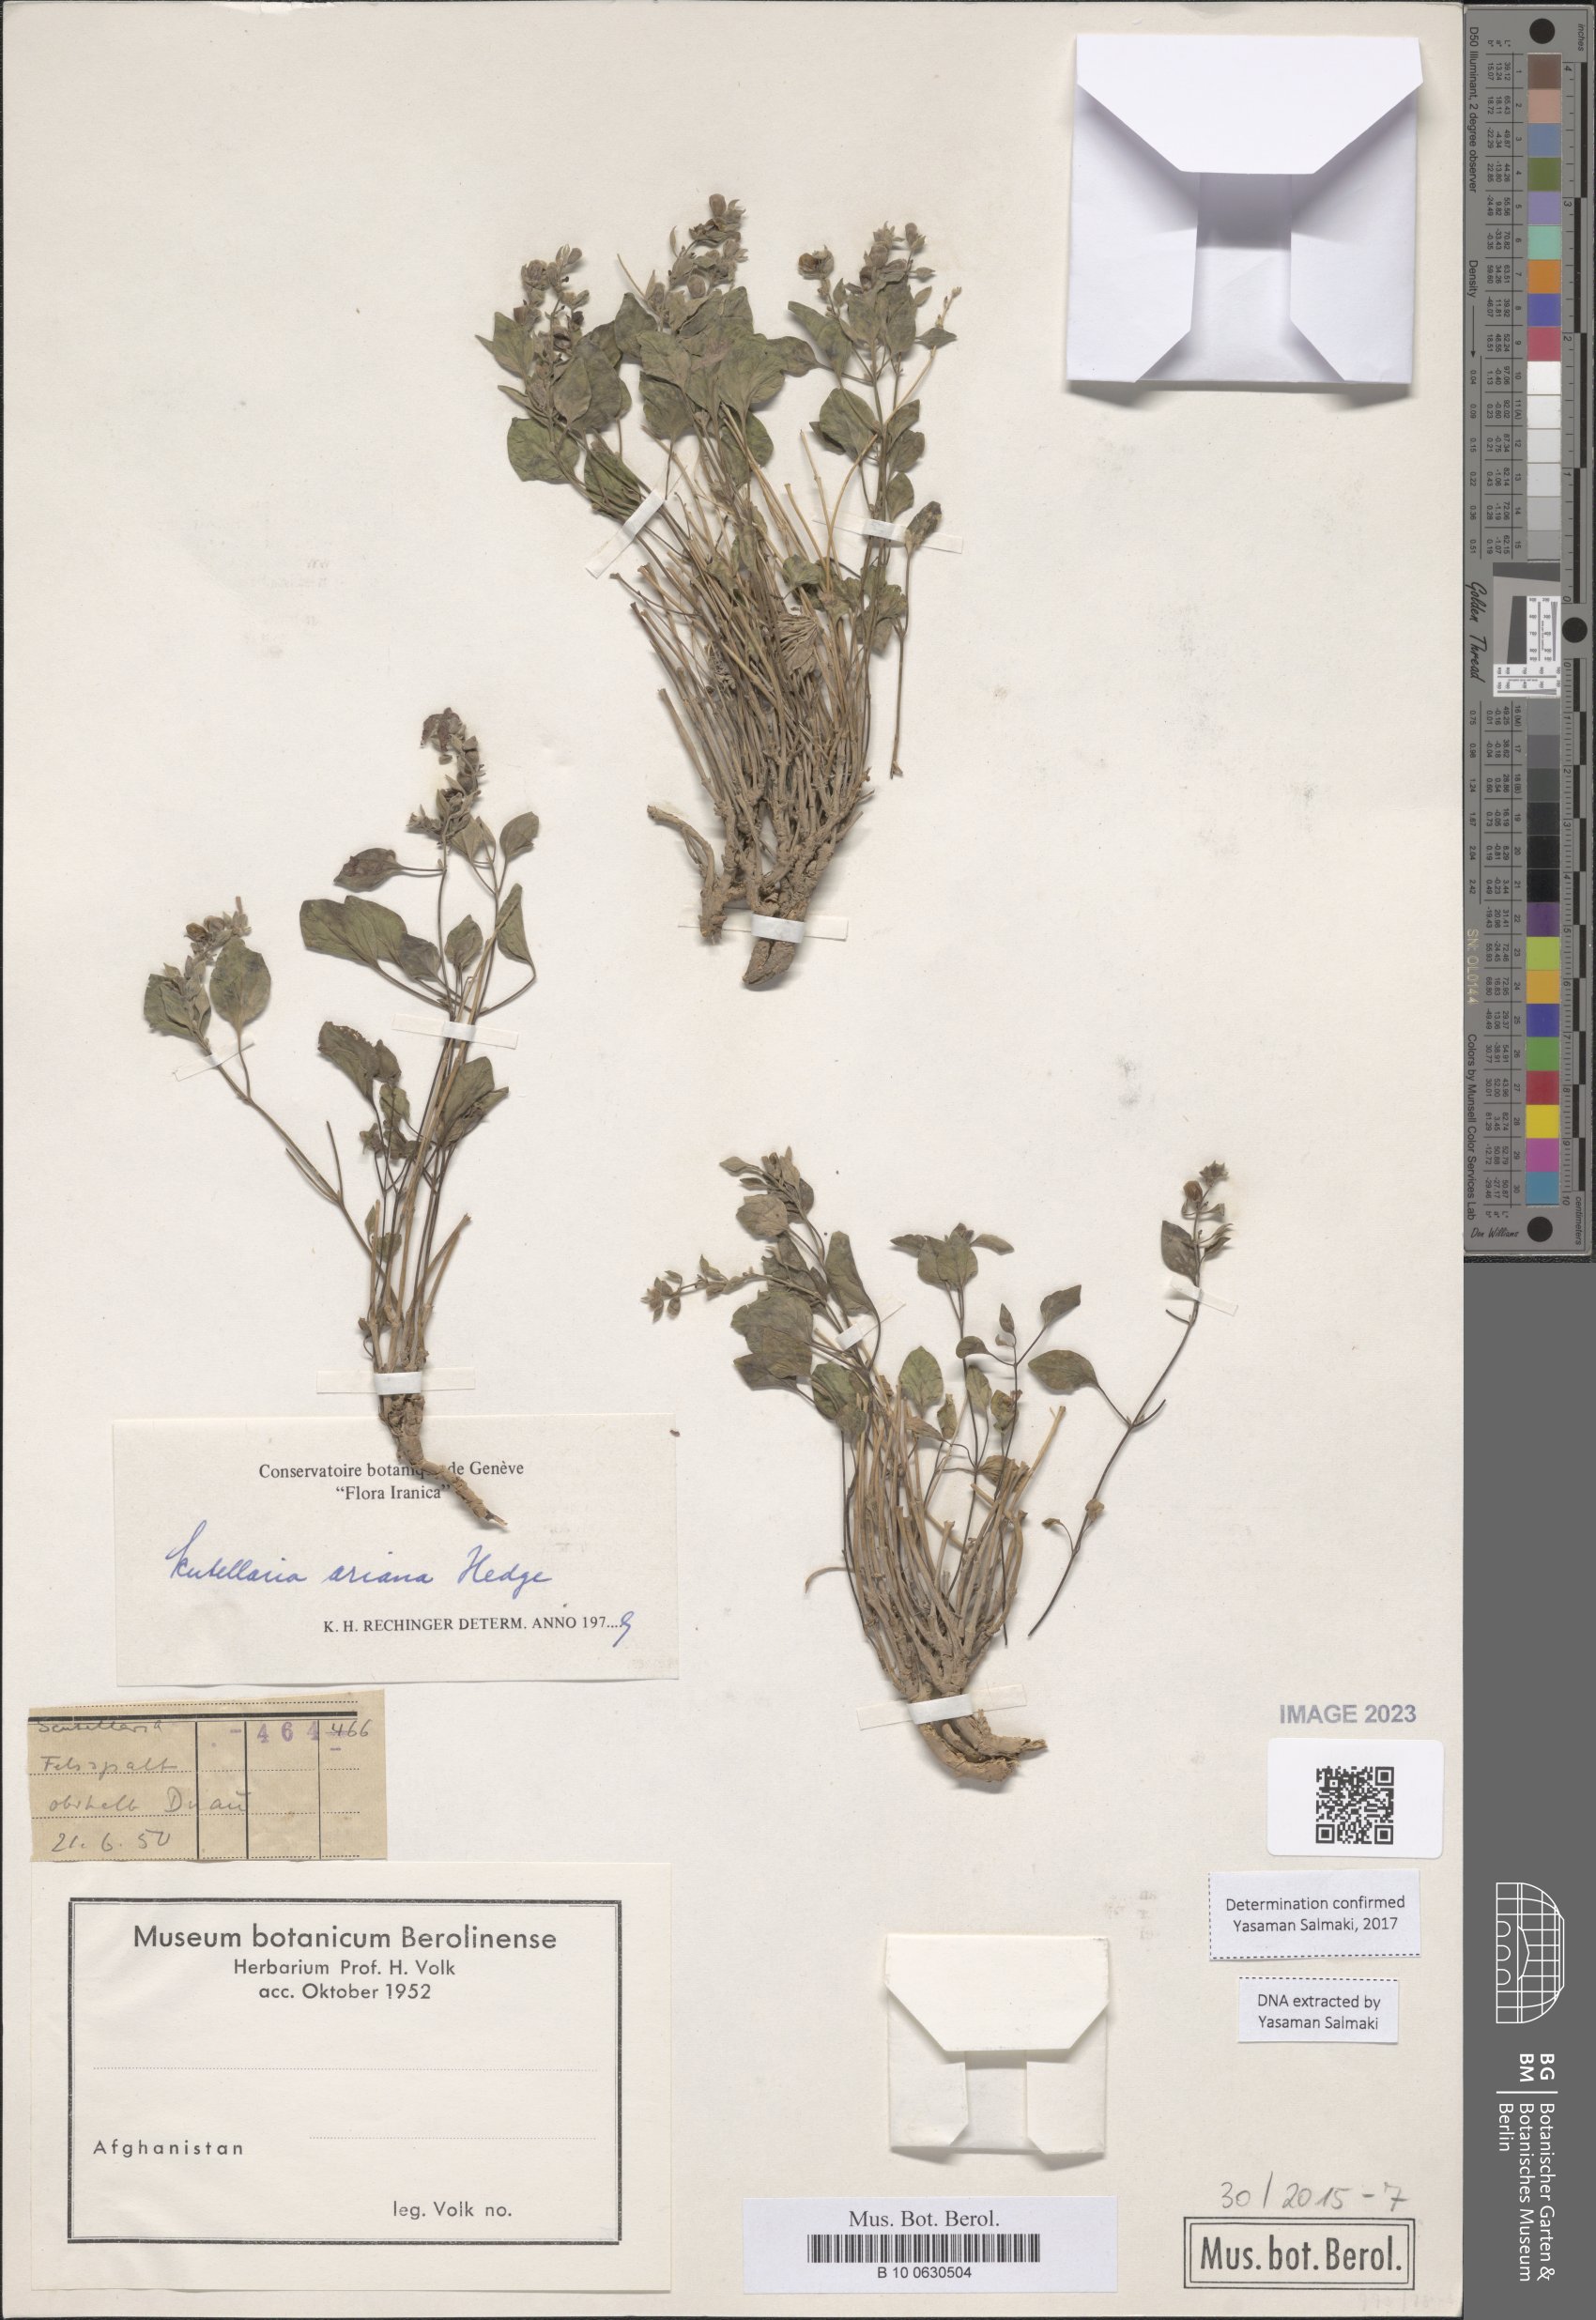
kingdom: Plantae
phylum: Tracheophyta
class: Magnoliopsida
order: Lamiales
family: Lamiaceae
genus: Scutellaria
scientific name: Scutellaria ariana
